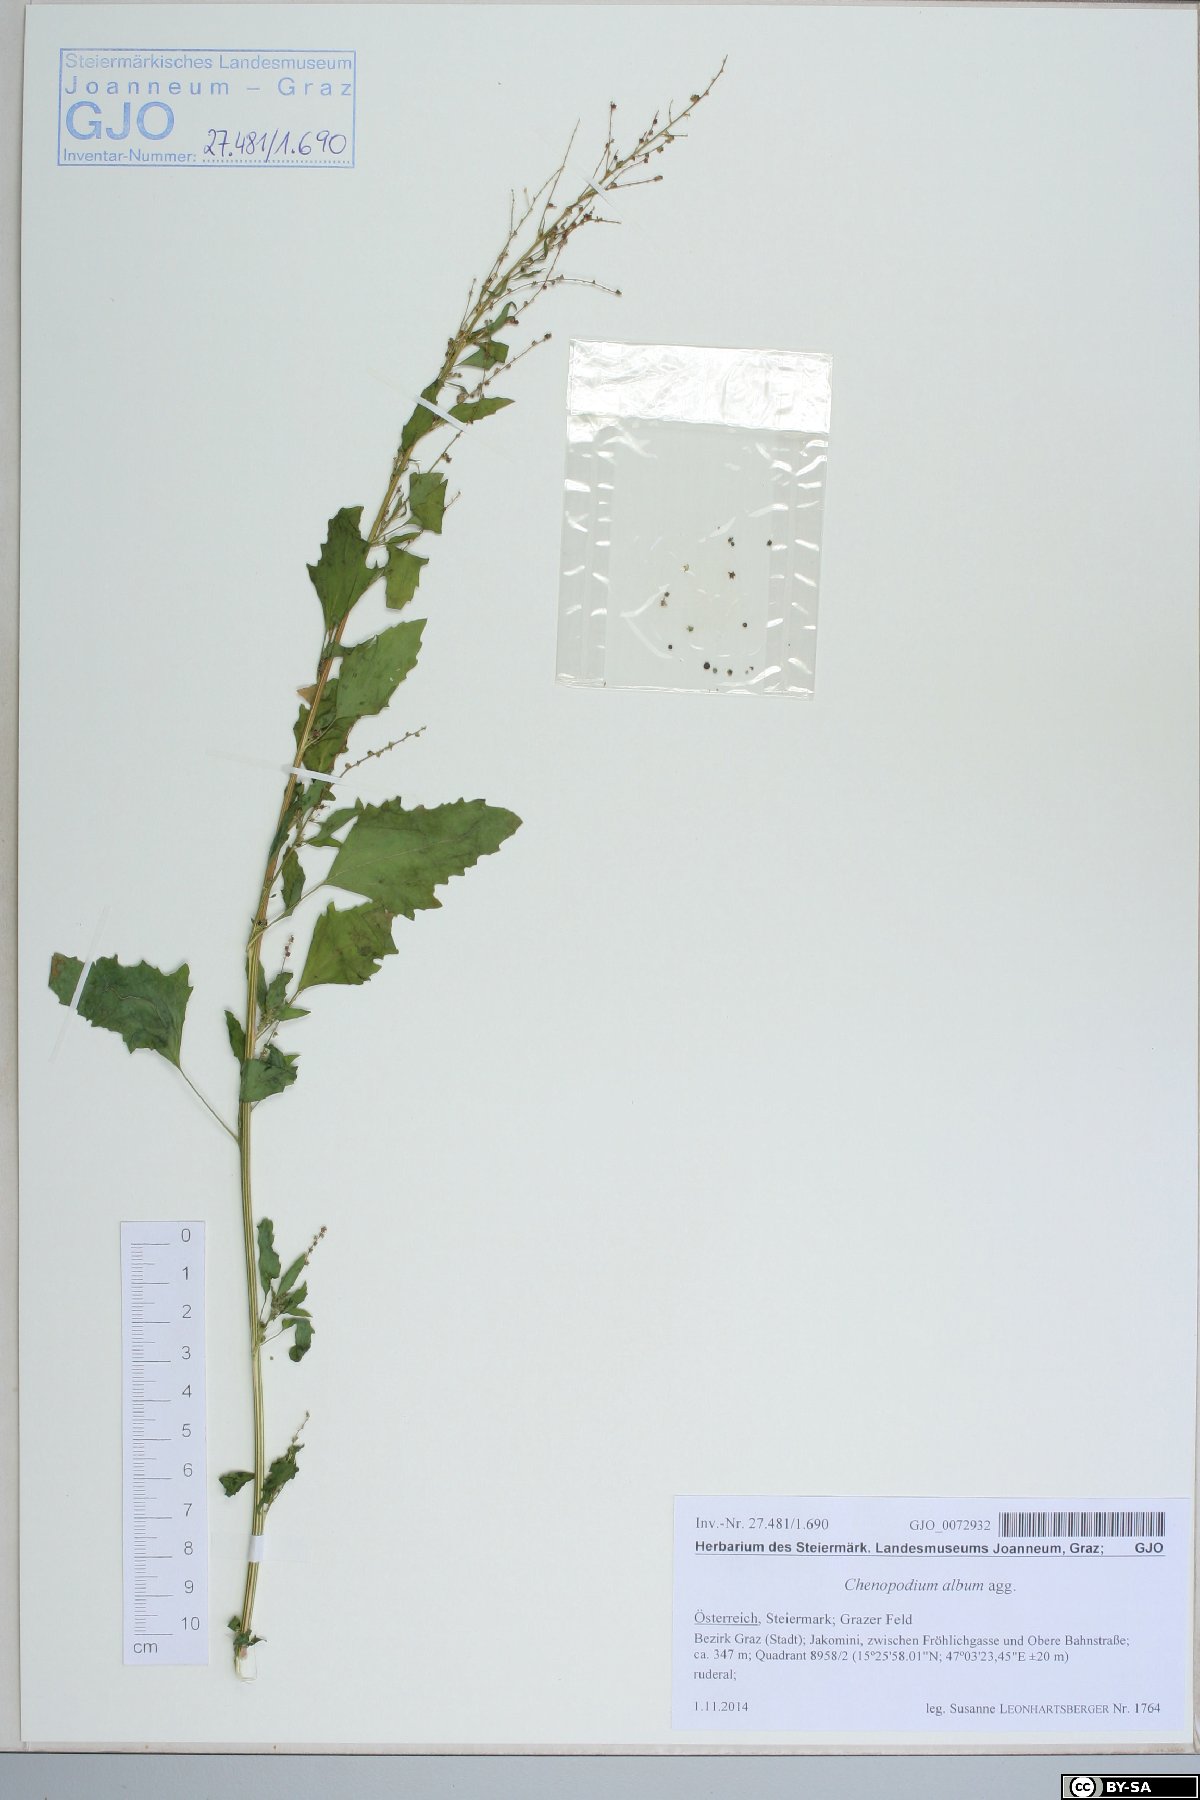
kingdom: Plantae
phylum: Tracheophyta
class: Magnoliopsida
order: Caryophyllales
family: Amaranthaceae
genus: Chenopodium
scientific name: Chenopodium album
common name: Fat-hen
